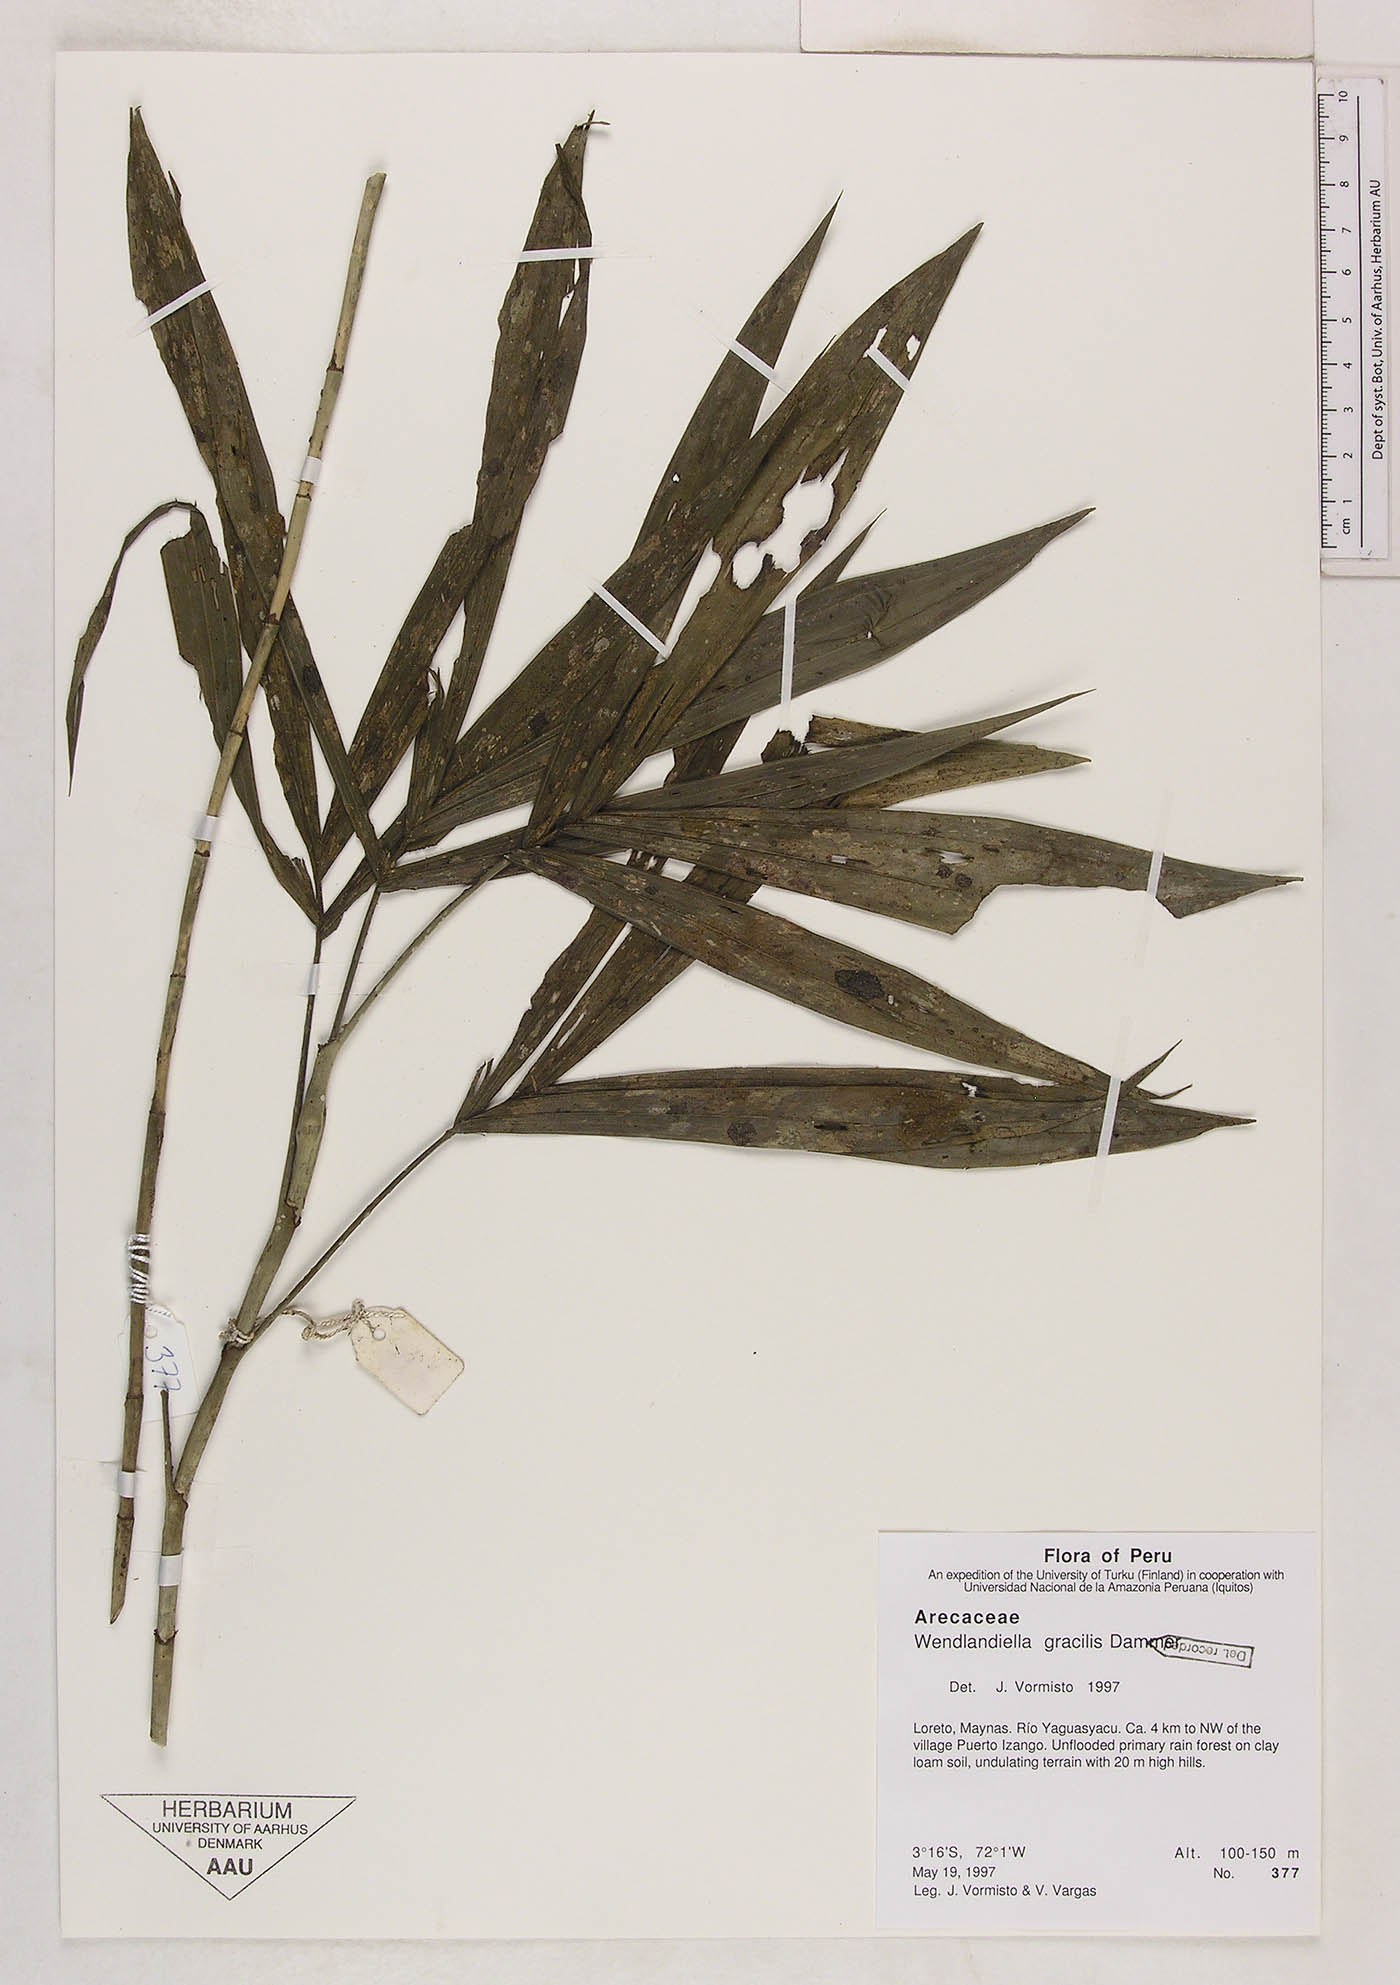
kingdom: Plantae
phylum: Tracheophyta
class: Liliopsida
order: Arecales
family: Arecaceae
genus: Wendlandiella
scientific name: Wendlandiella gracilis
